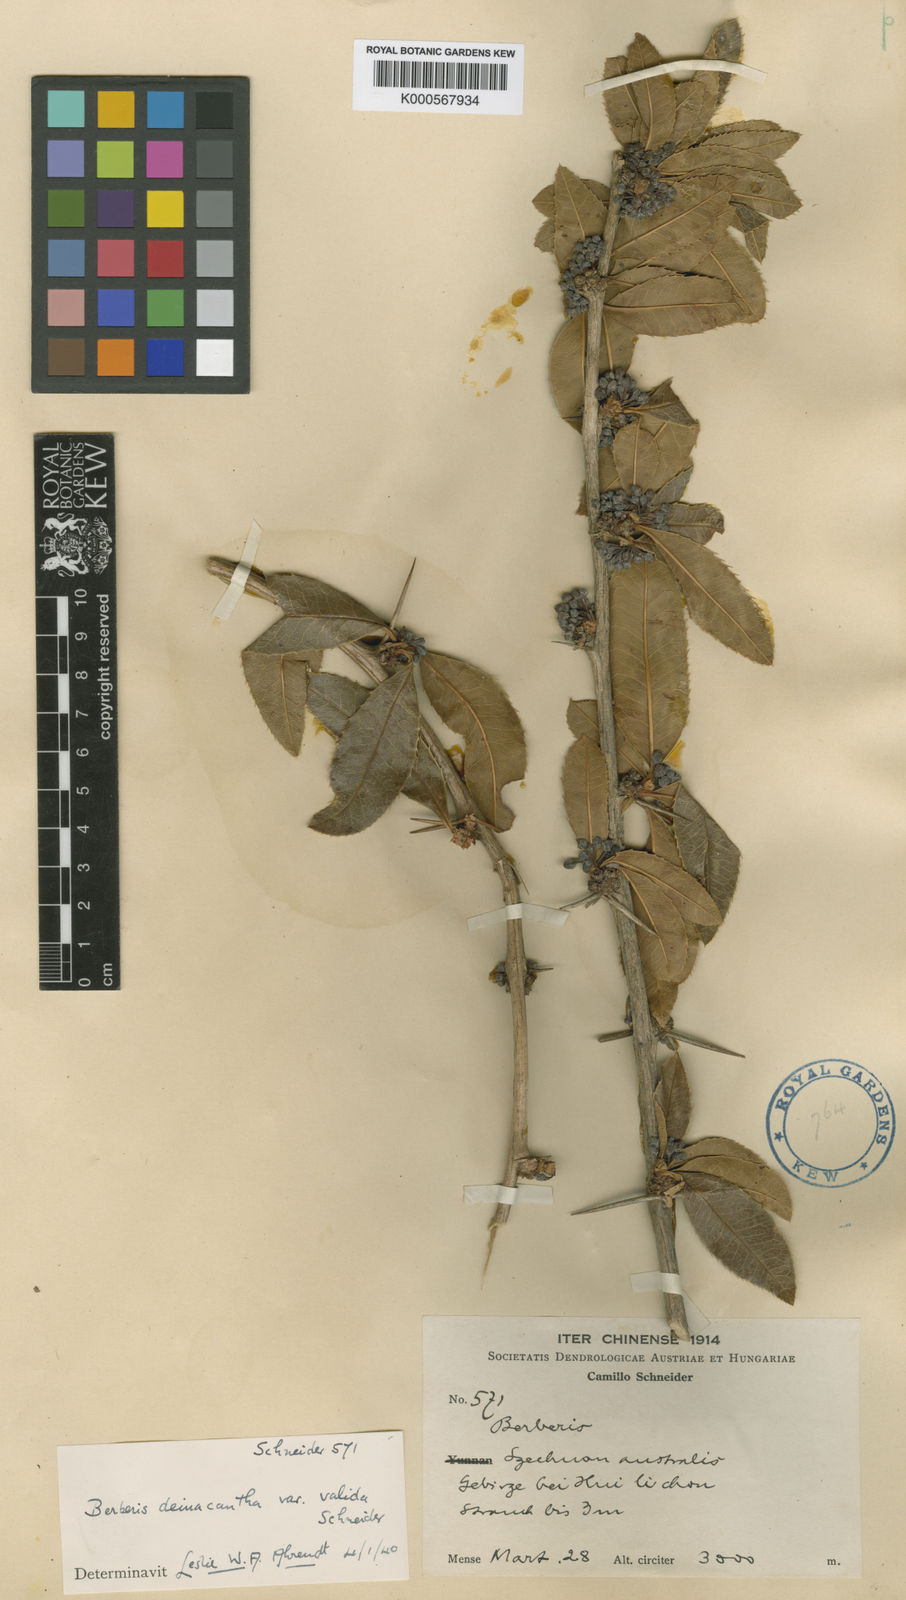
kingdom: Plantae
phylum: Tracheophyta
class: Magnoliopsida
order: Ranunculales
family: Berberidaceae
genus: Berberis
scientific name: Berberis deinacantha
